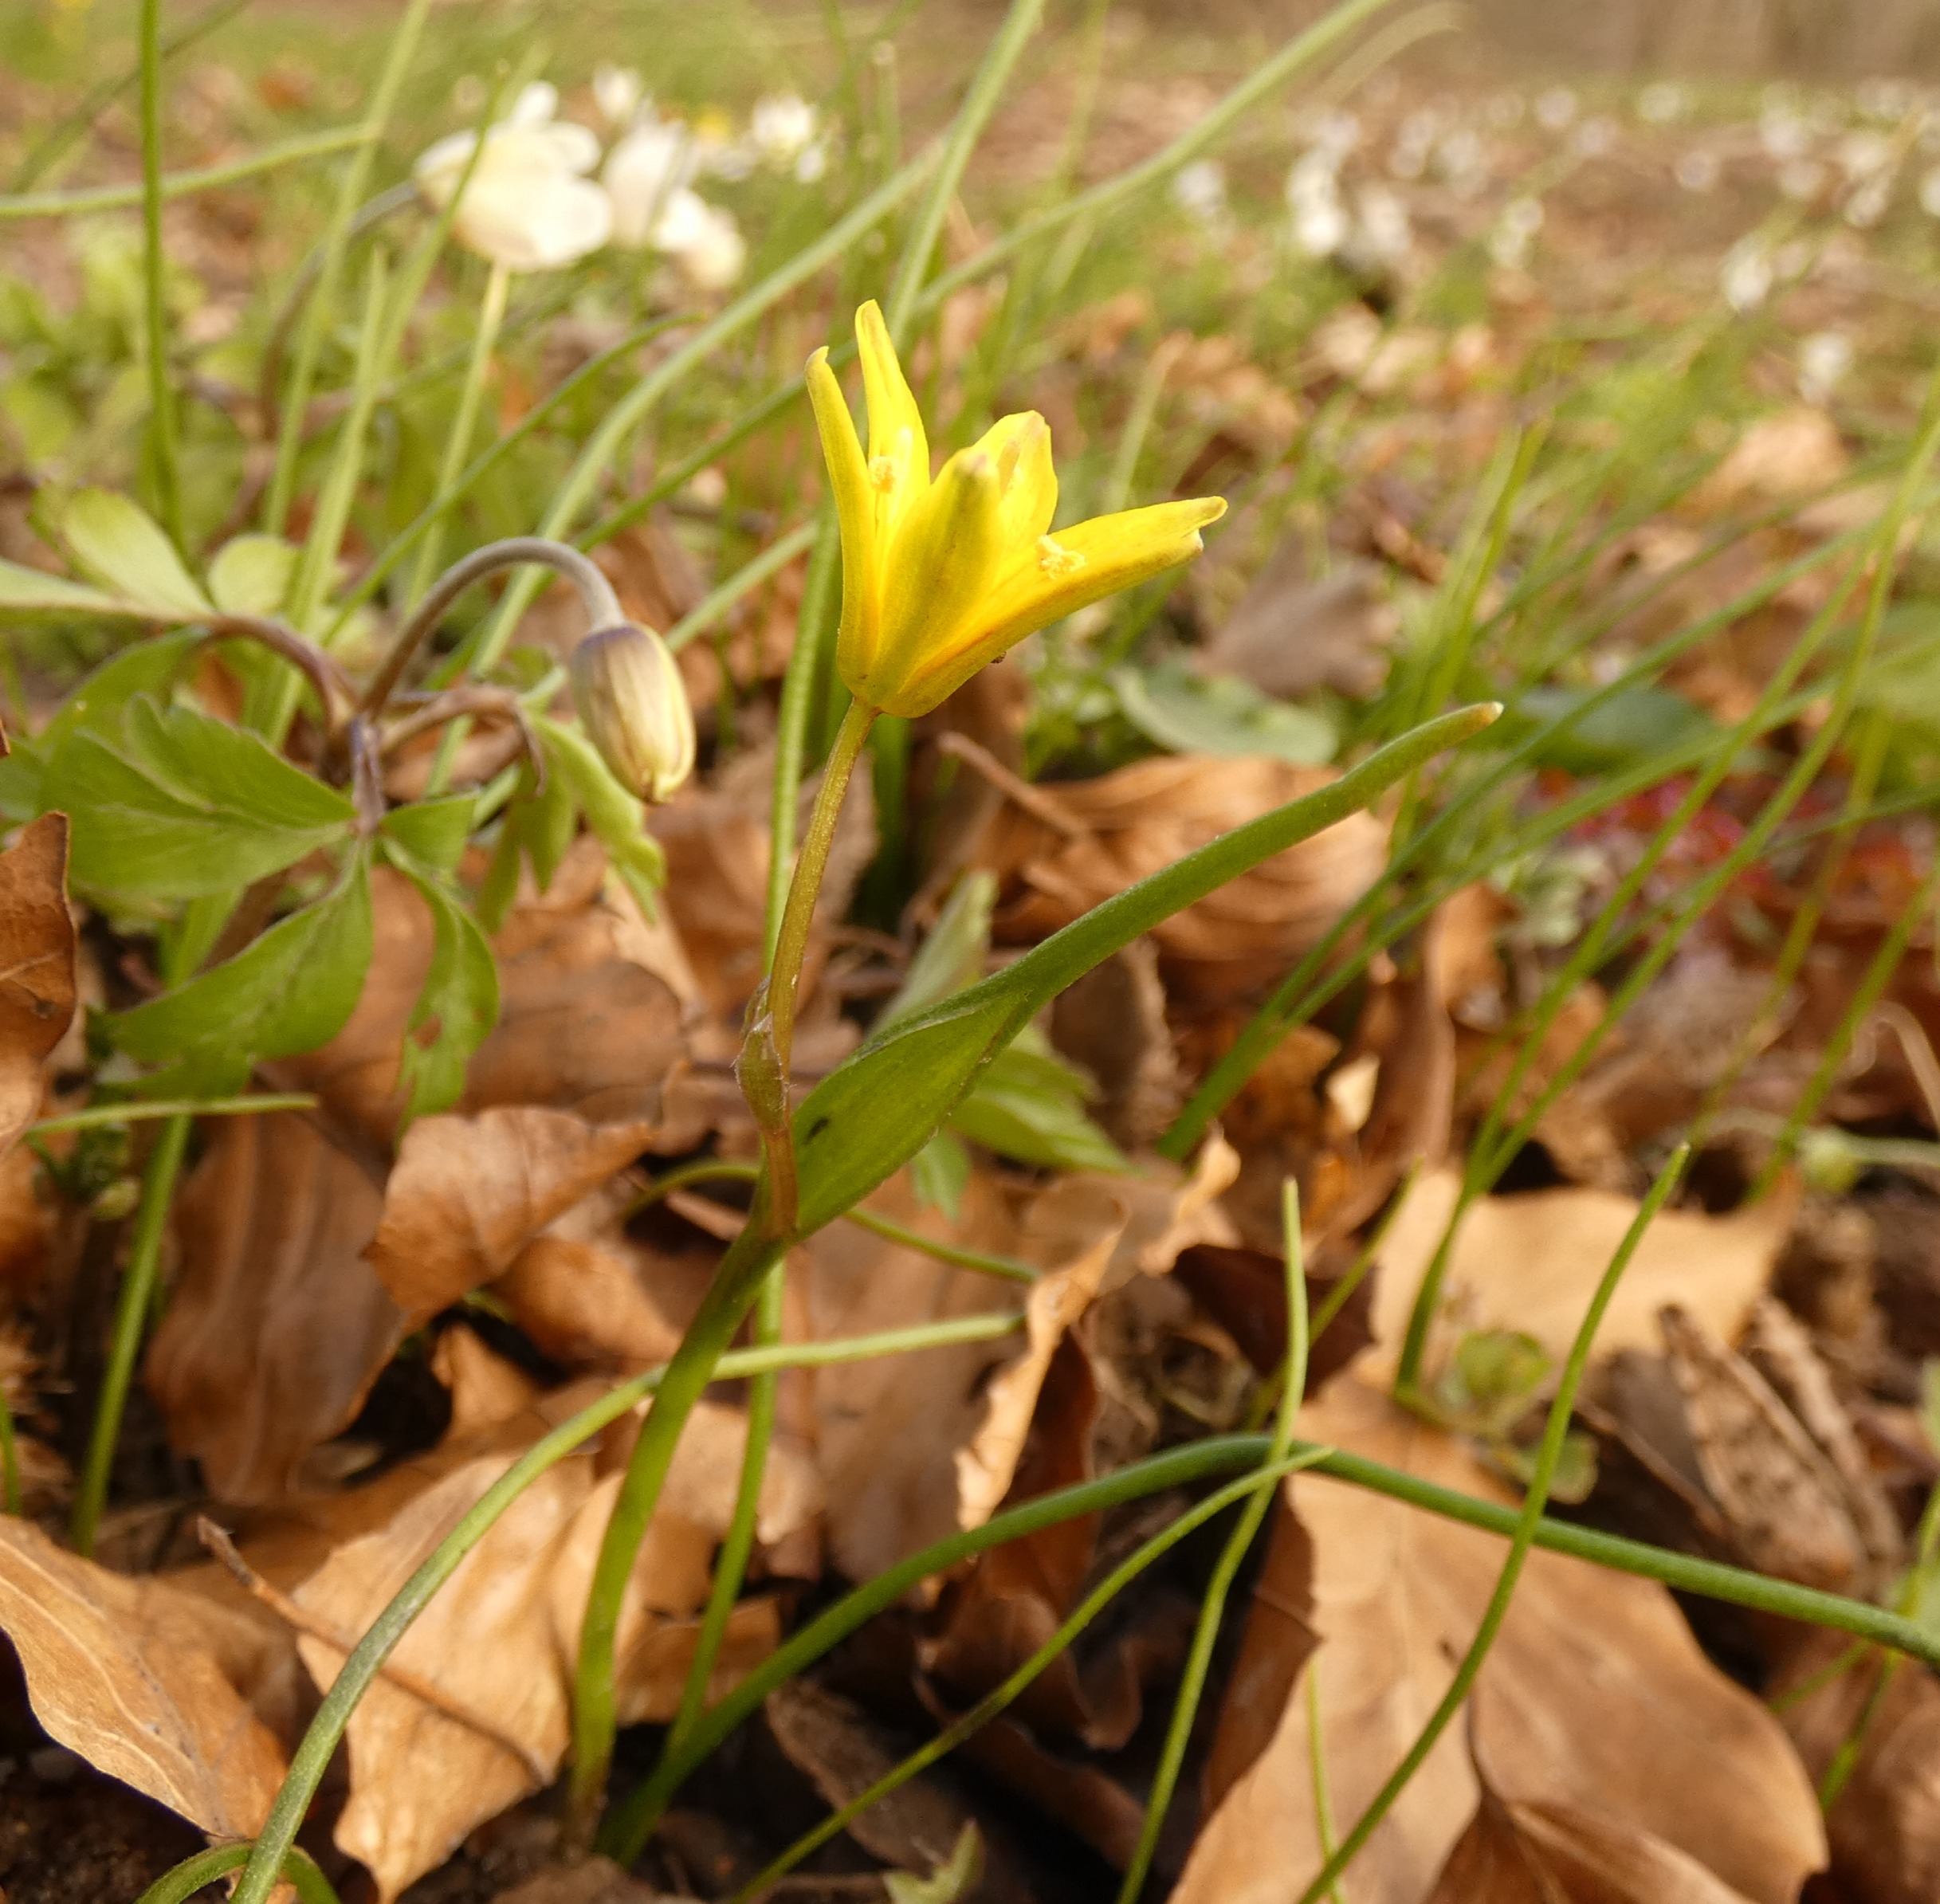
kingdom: Plantae
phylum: Tracheophyta
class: Liliopsida
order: Liliales
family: Liliaceae
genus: Gagea
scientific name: Gagea spathacea
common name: Hylster-guldstjerne
